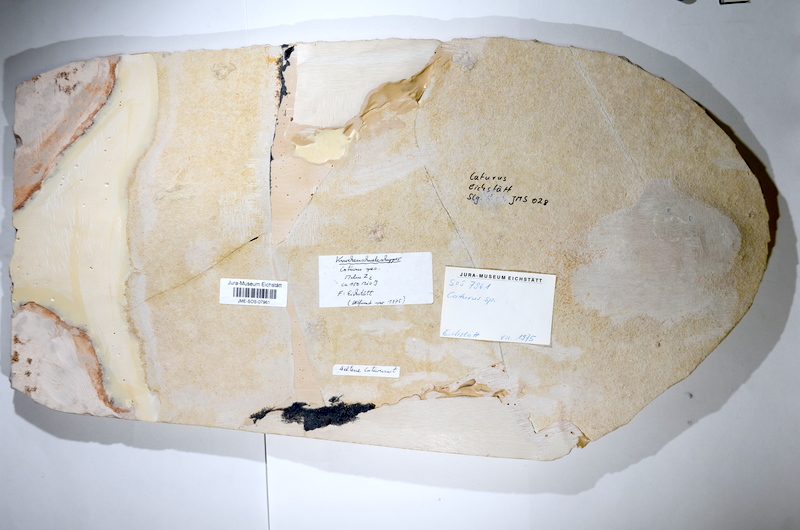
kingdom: Animalia
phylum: Chordata
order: Amiiformes
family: Caturidae
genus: Caturus
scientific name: Caturus
